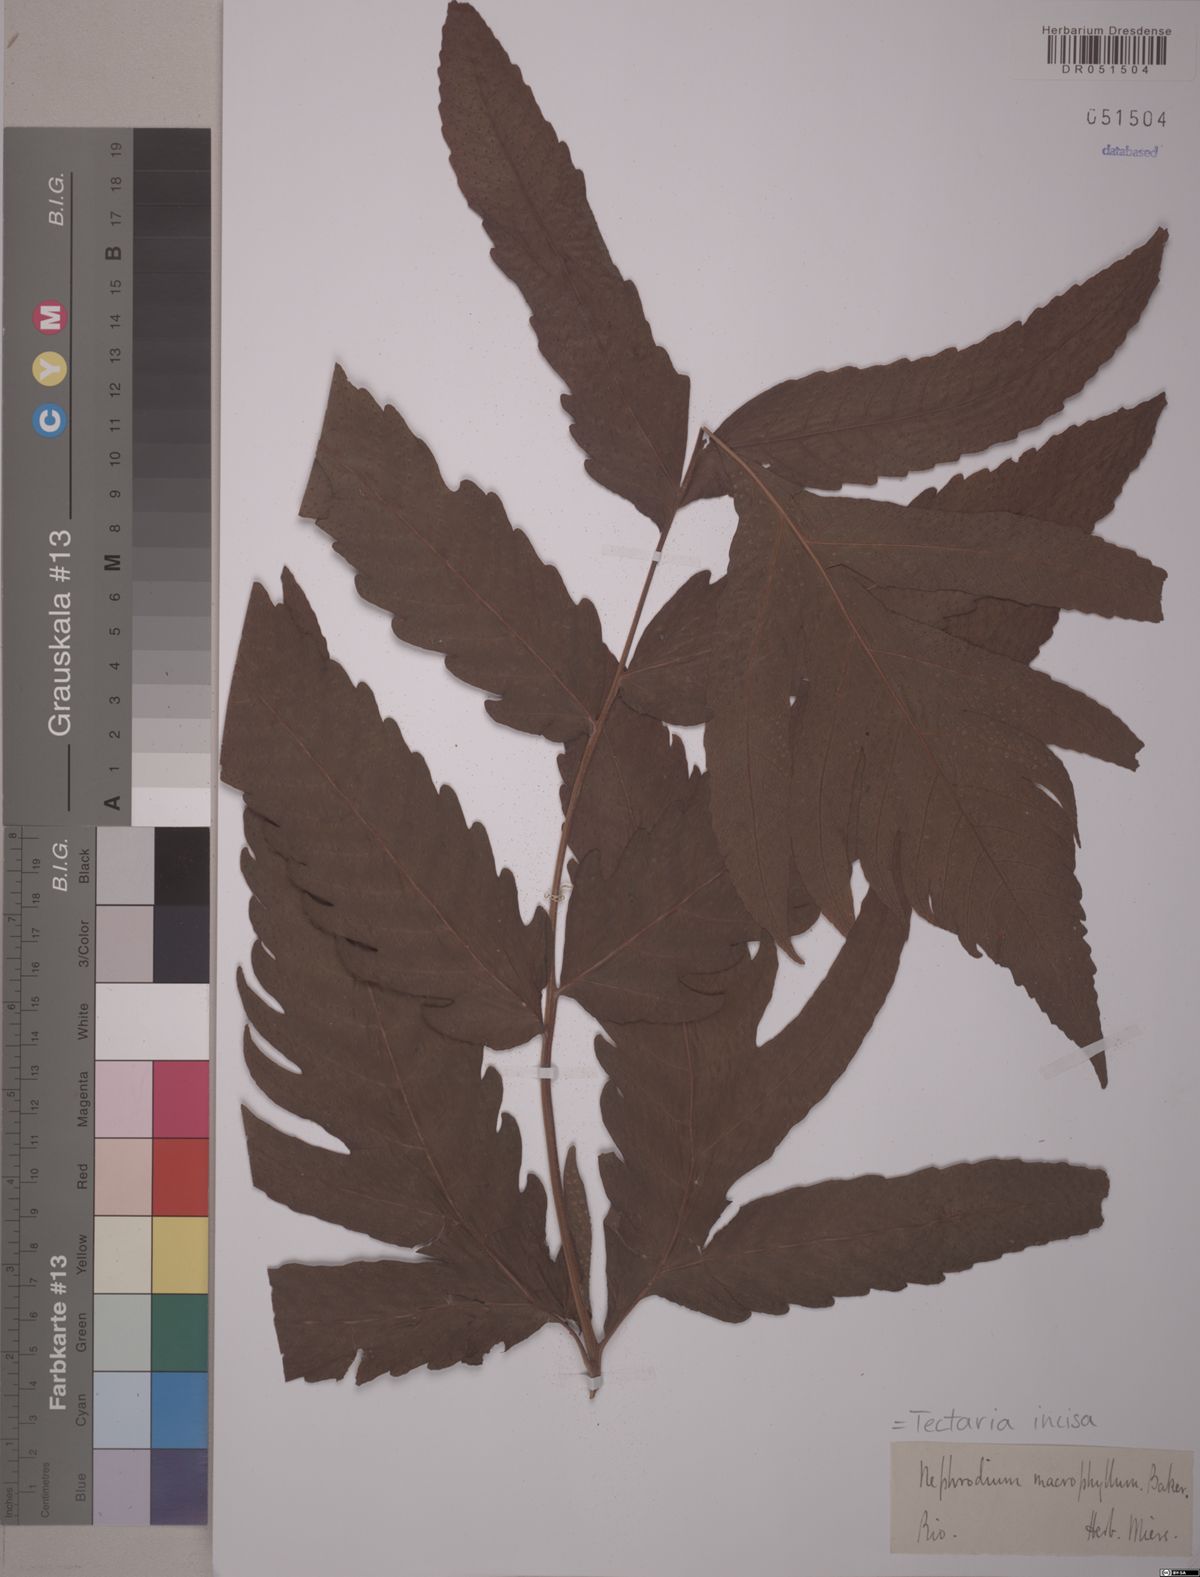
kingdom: Plantae
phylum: Tracheophyta
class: Polypodiopsida
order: Polypodiales
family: Tectariaceae
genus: Tectaria
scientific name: Tectaria incisa
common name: Incised halberd fern
